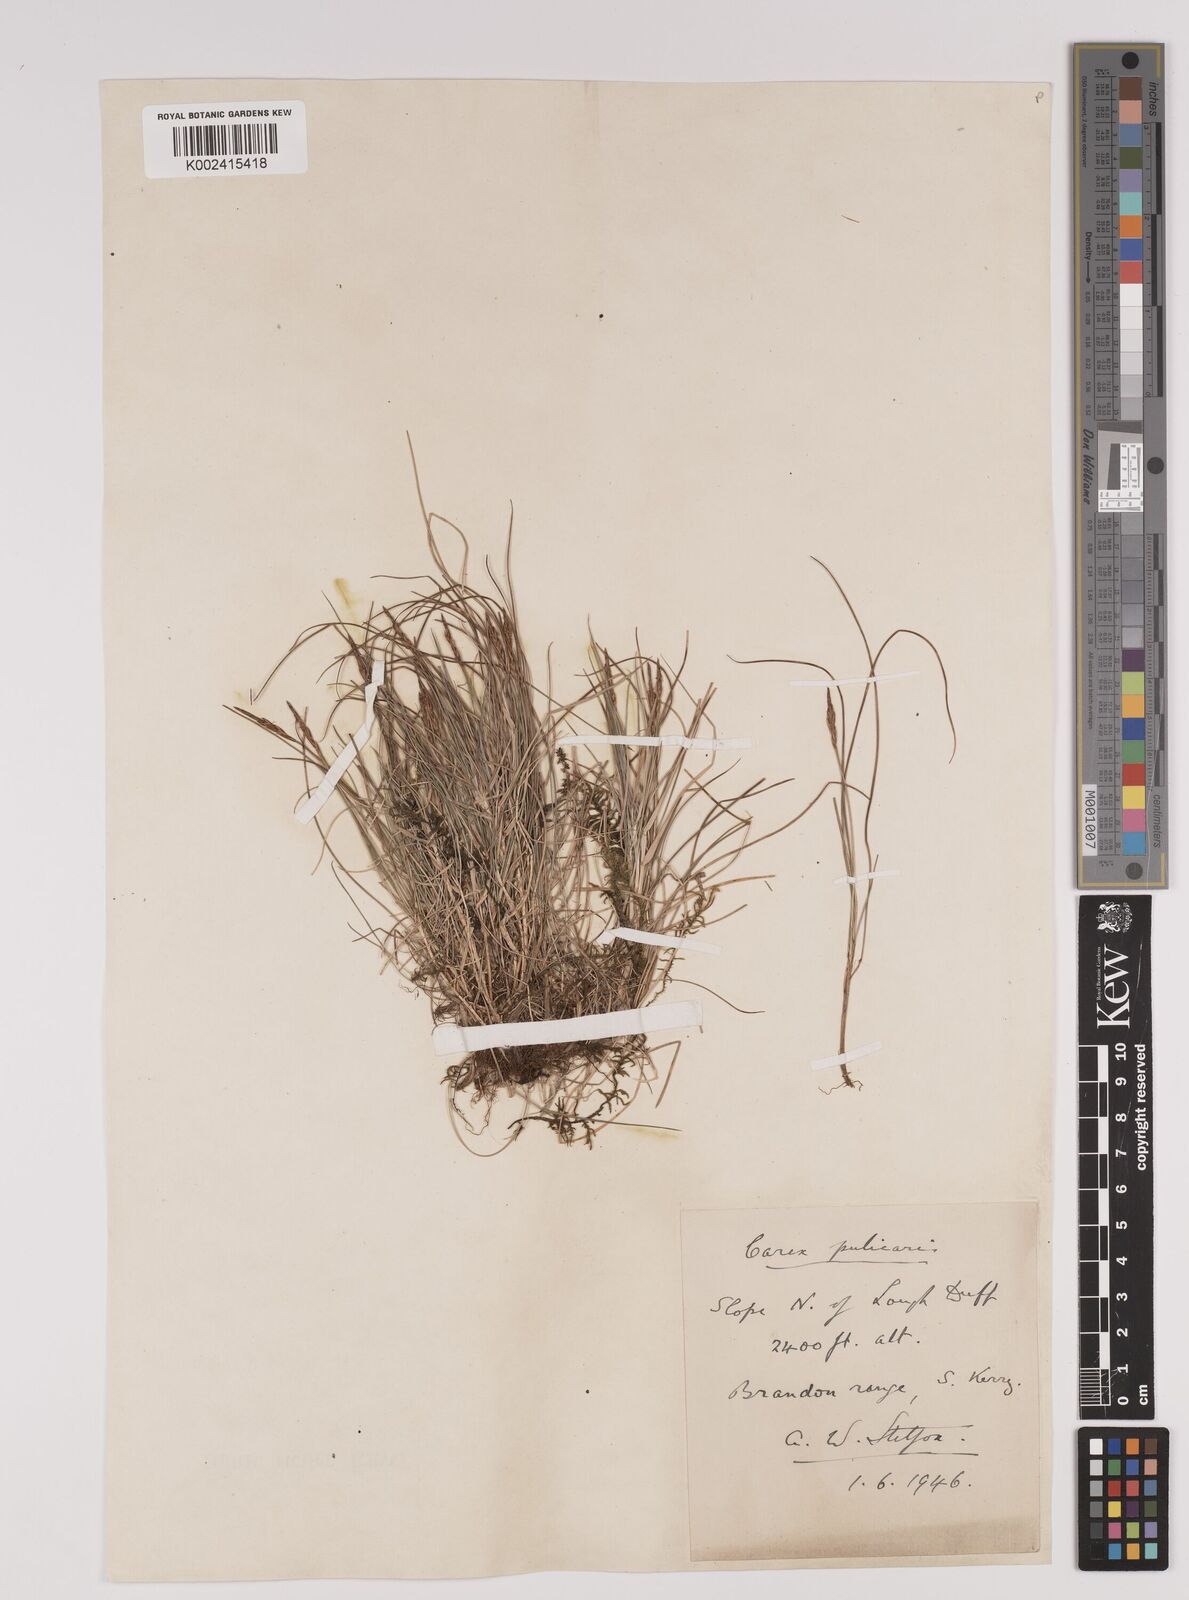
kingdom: Plantae
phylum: Tracheophyta
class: Liliopsida
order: Poales
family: Cyperaceae
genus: Carex
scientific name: Carex pulicaris
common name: Flea sedge
